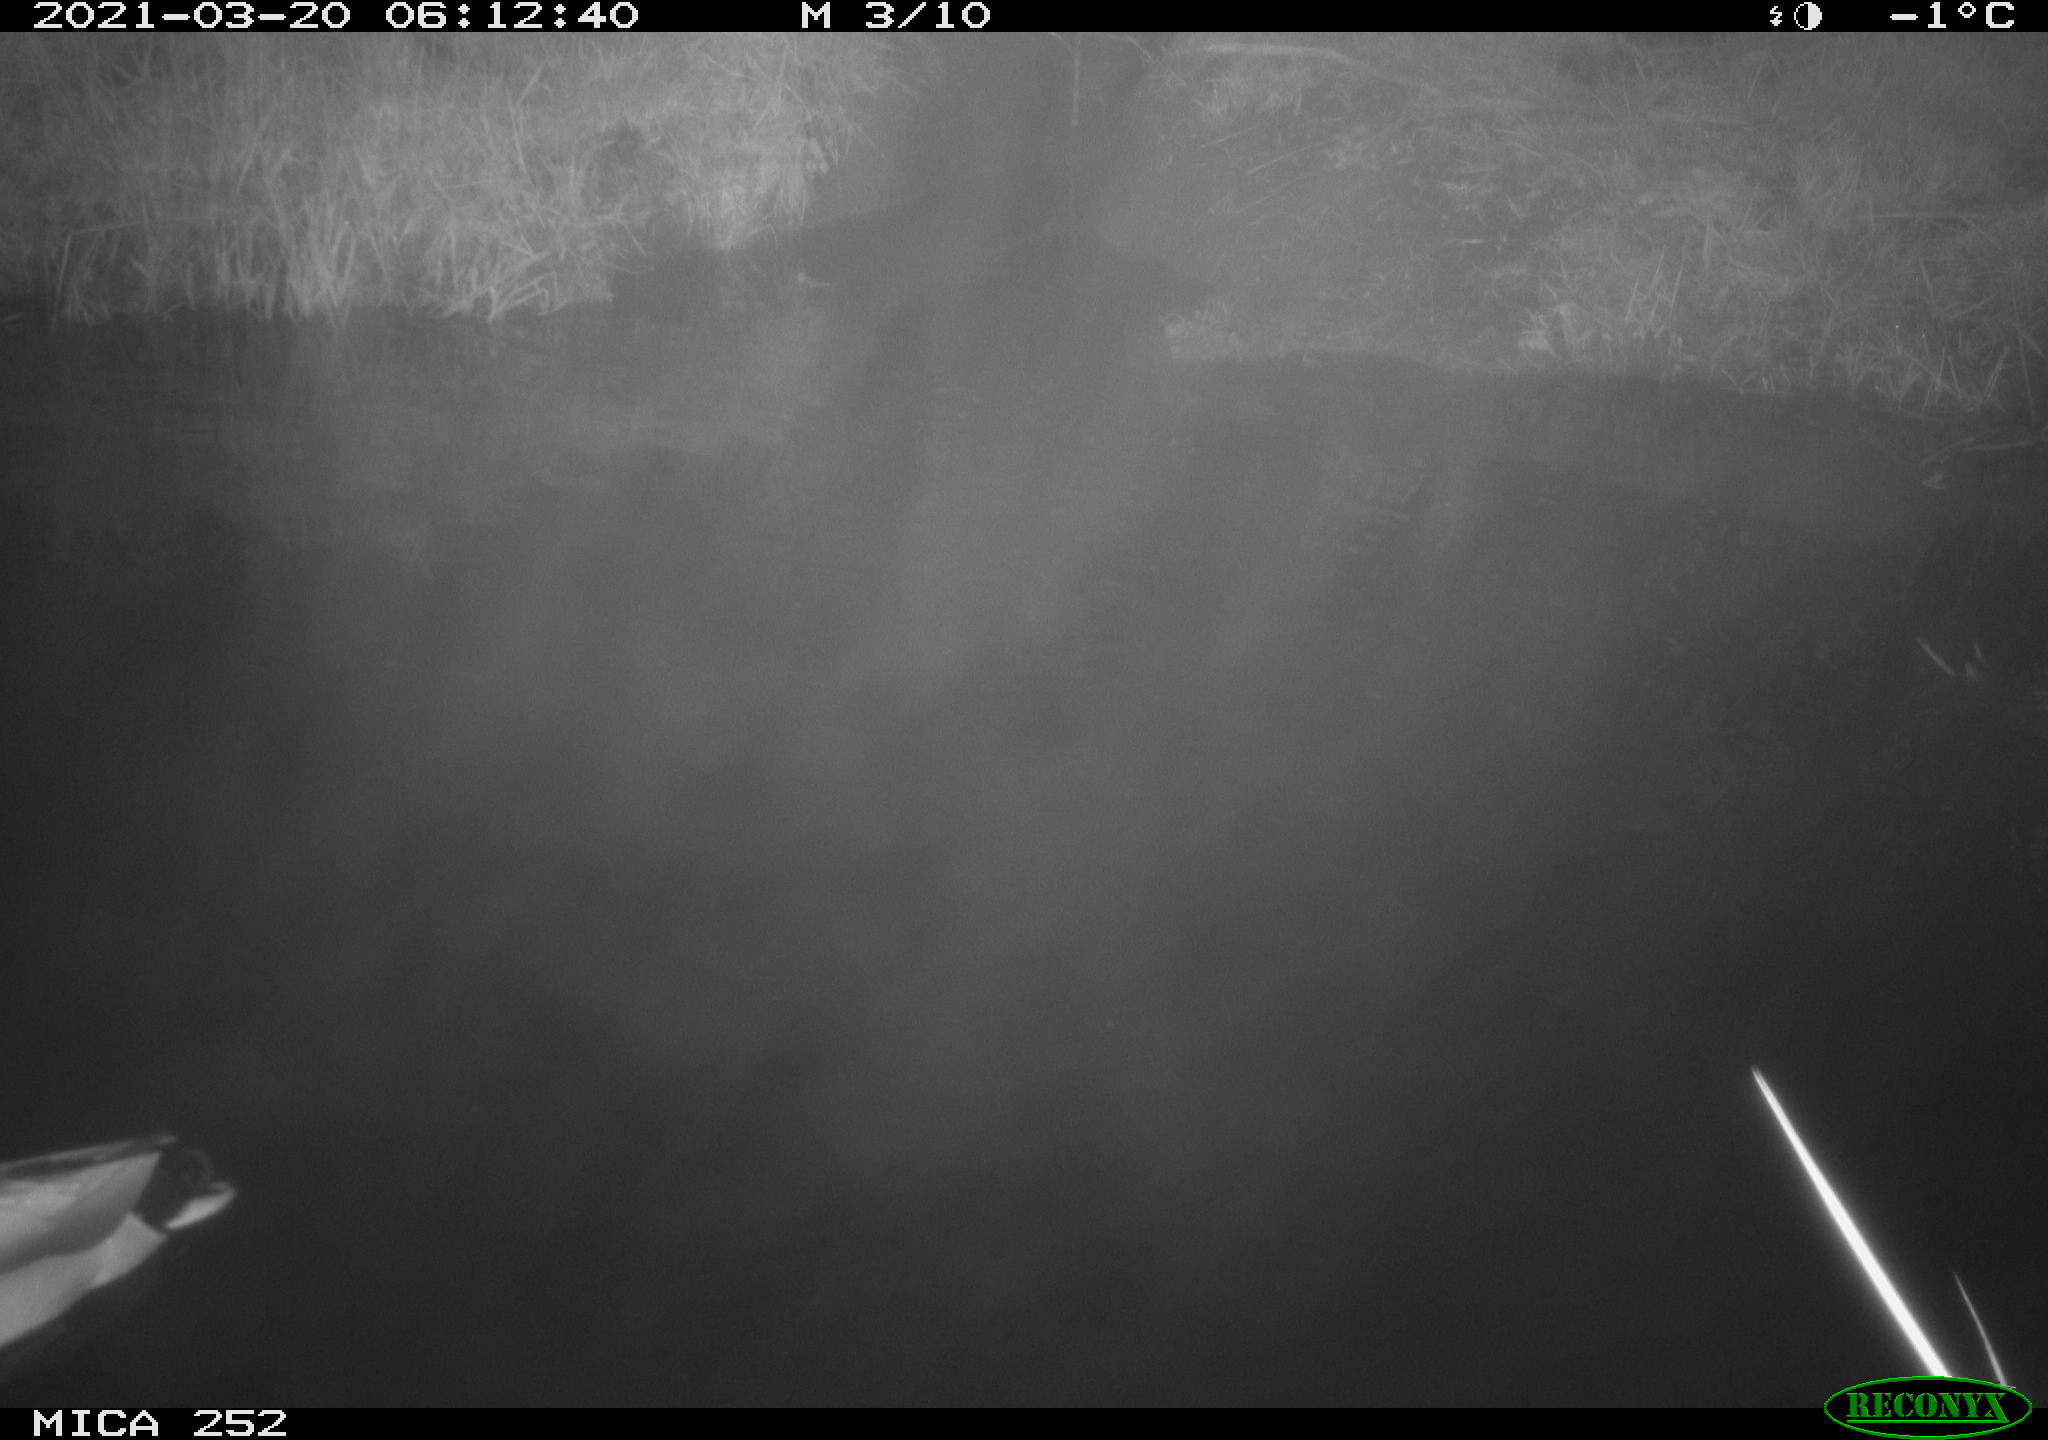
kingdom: Animalia
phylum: Chordata
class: Aves
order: Anseriformes
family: Anatidae
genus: Anas
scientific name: Anas platyrhynchos
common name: Mallard
